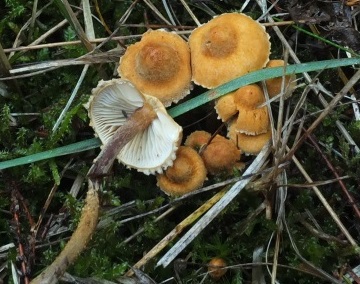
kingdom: Fungi
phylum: Basidiomycota
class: Agaricomycetes
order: Agaricales
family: Tricholomataceae
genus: Cystoderma
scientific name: Cystoderma amianthinum
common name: okkergul grynhat
